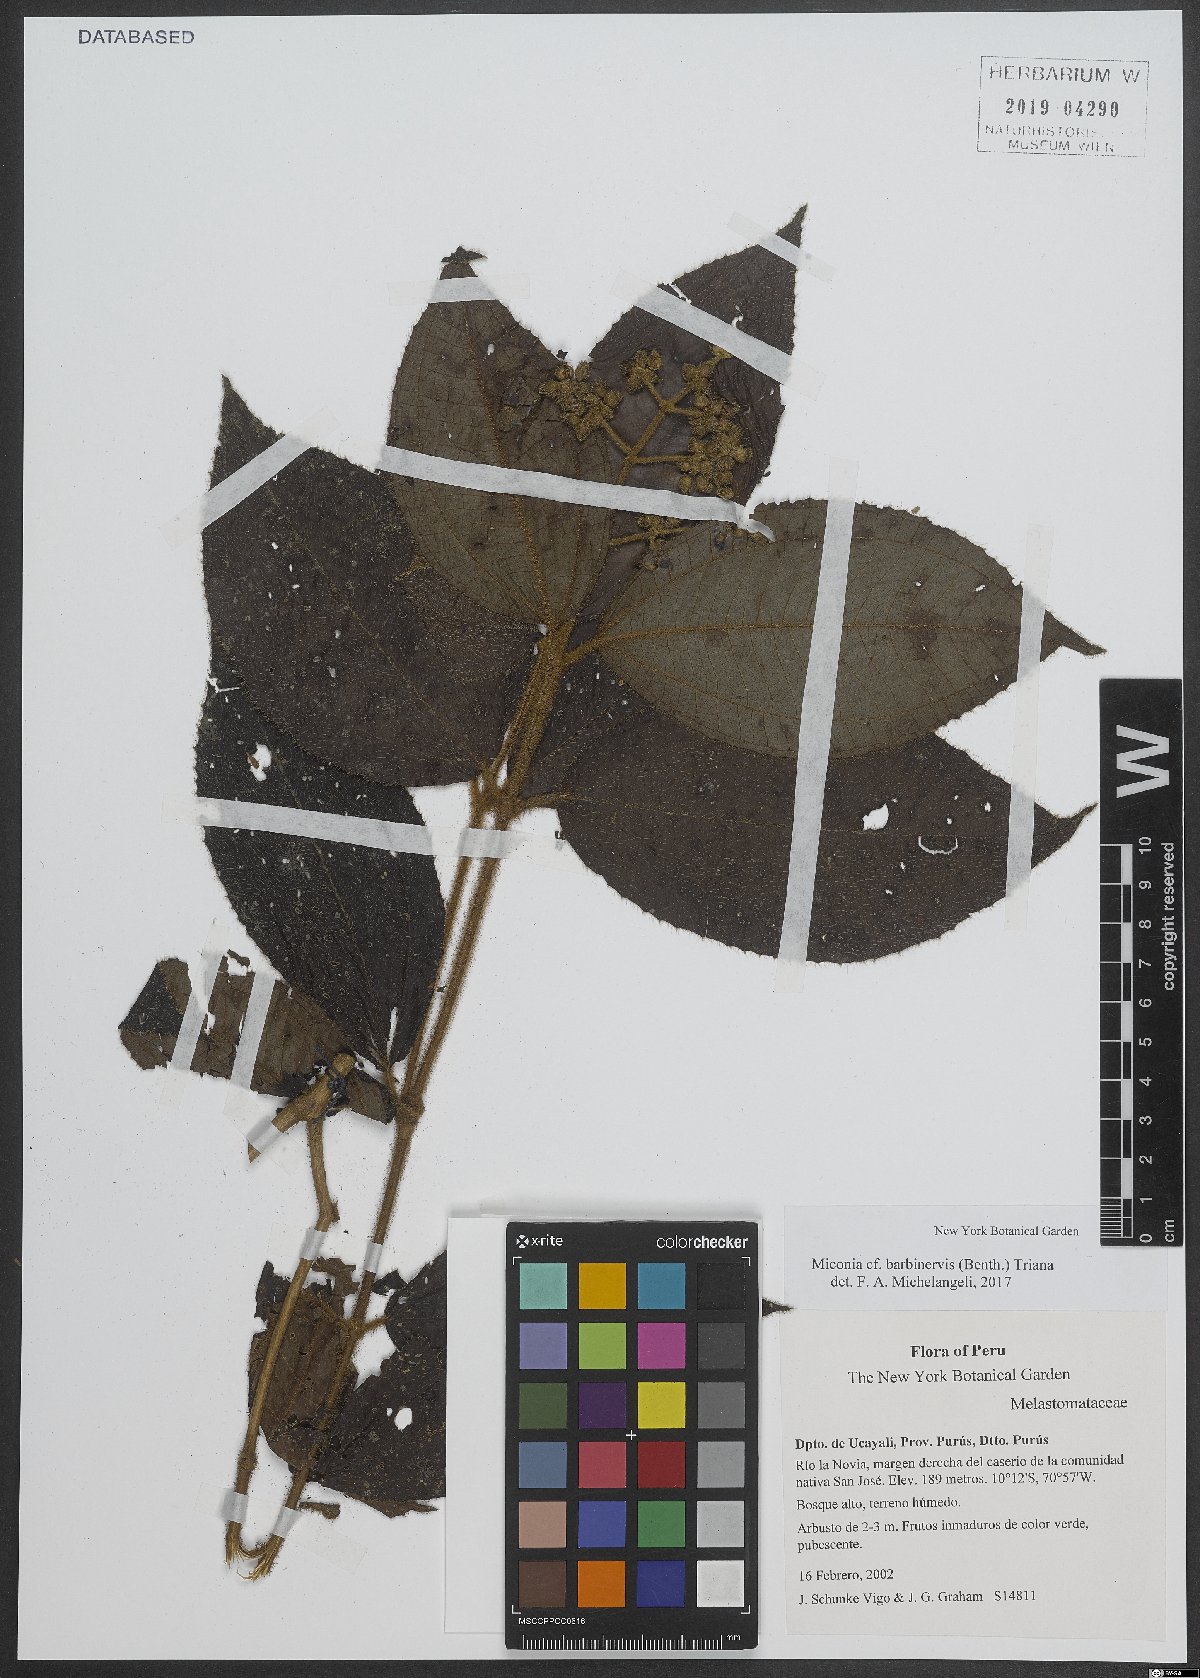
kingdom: Plantae
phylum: Tracheophyta
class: Magnoliopsida
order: Myrtales
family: Melastomataceae
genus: Miconia
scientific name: Miconia barbinervis
